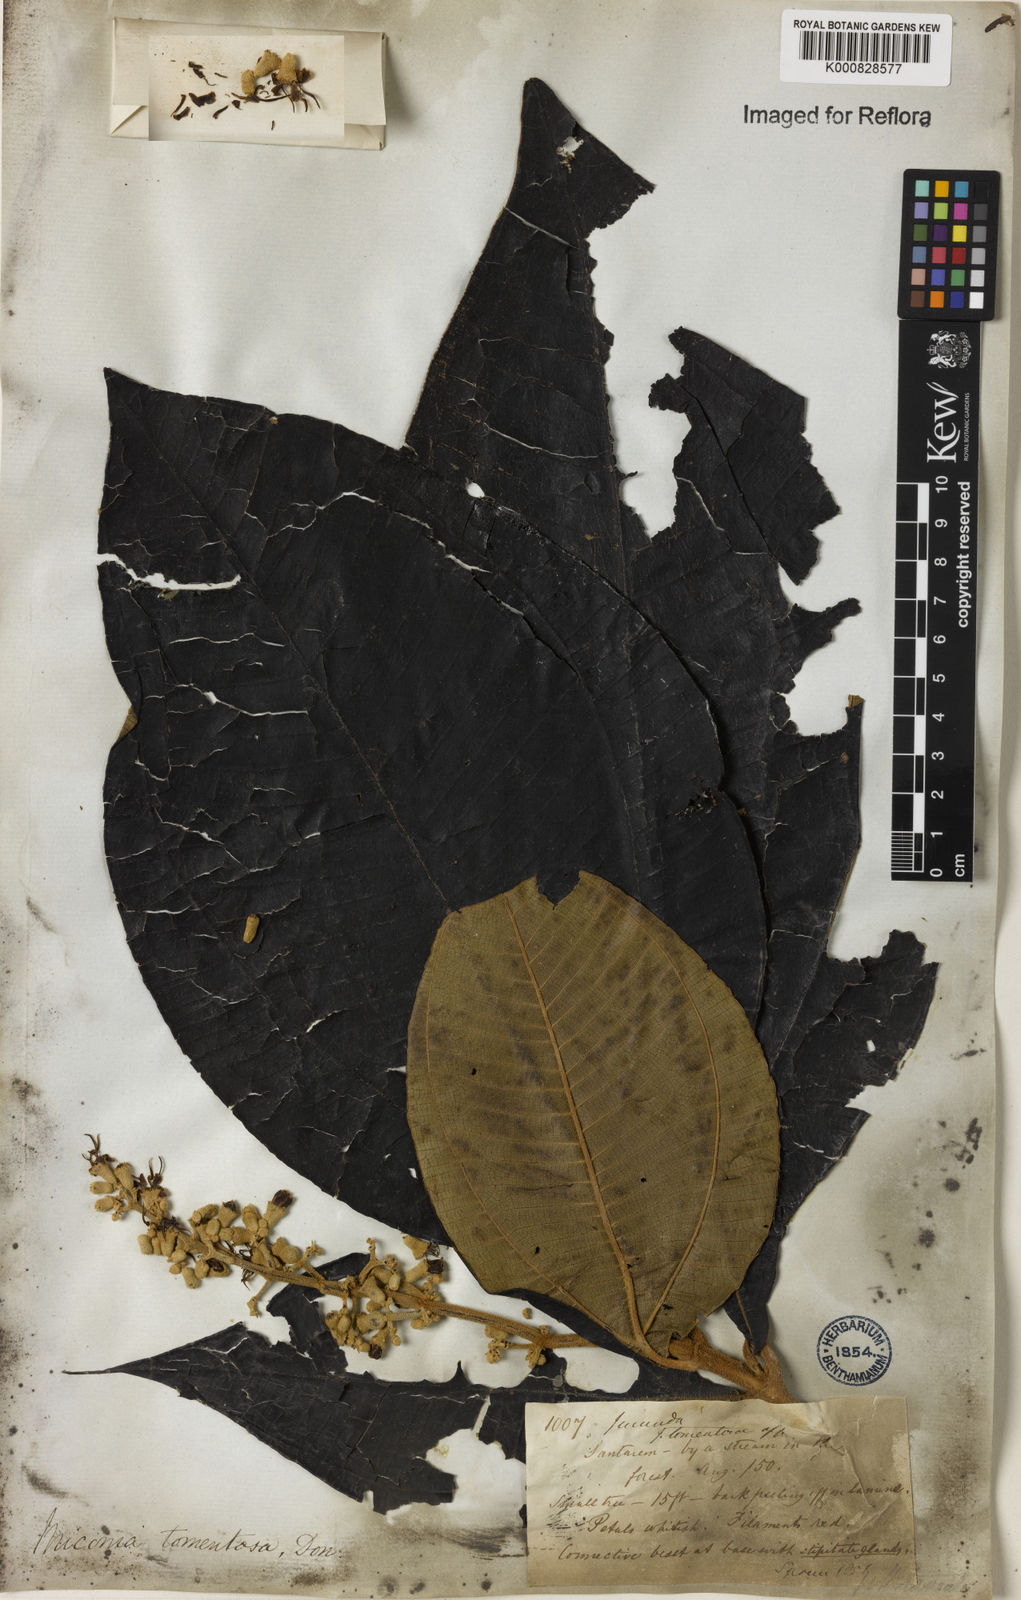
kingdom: Plantae
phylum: Tracheophyta
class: Magnoliopsida
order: Myrtales
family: Melastomataceae
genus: Miconia
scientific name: Miconia tomentosa
